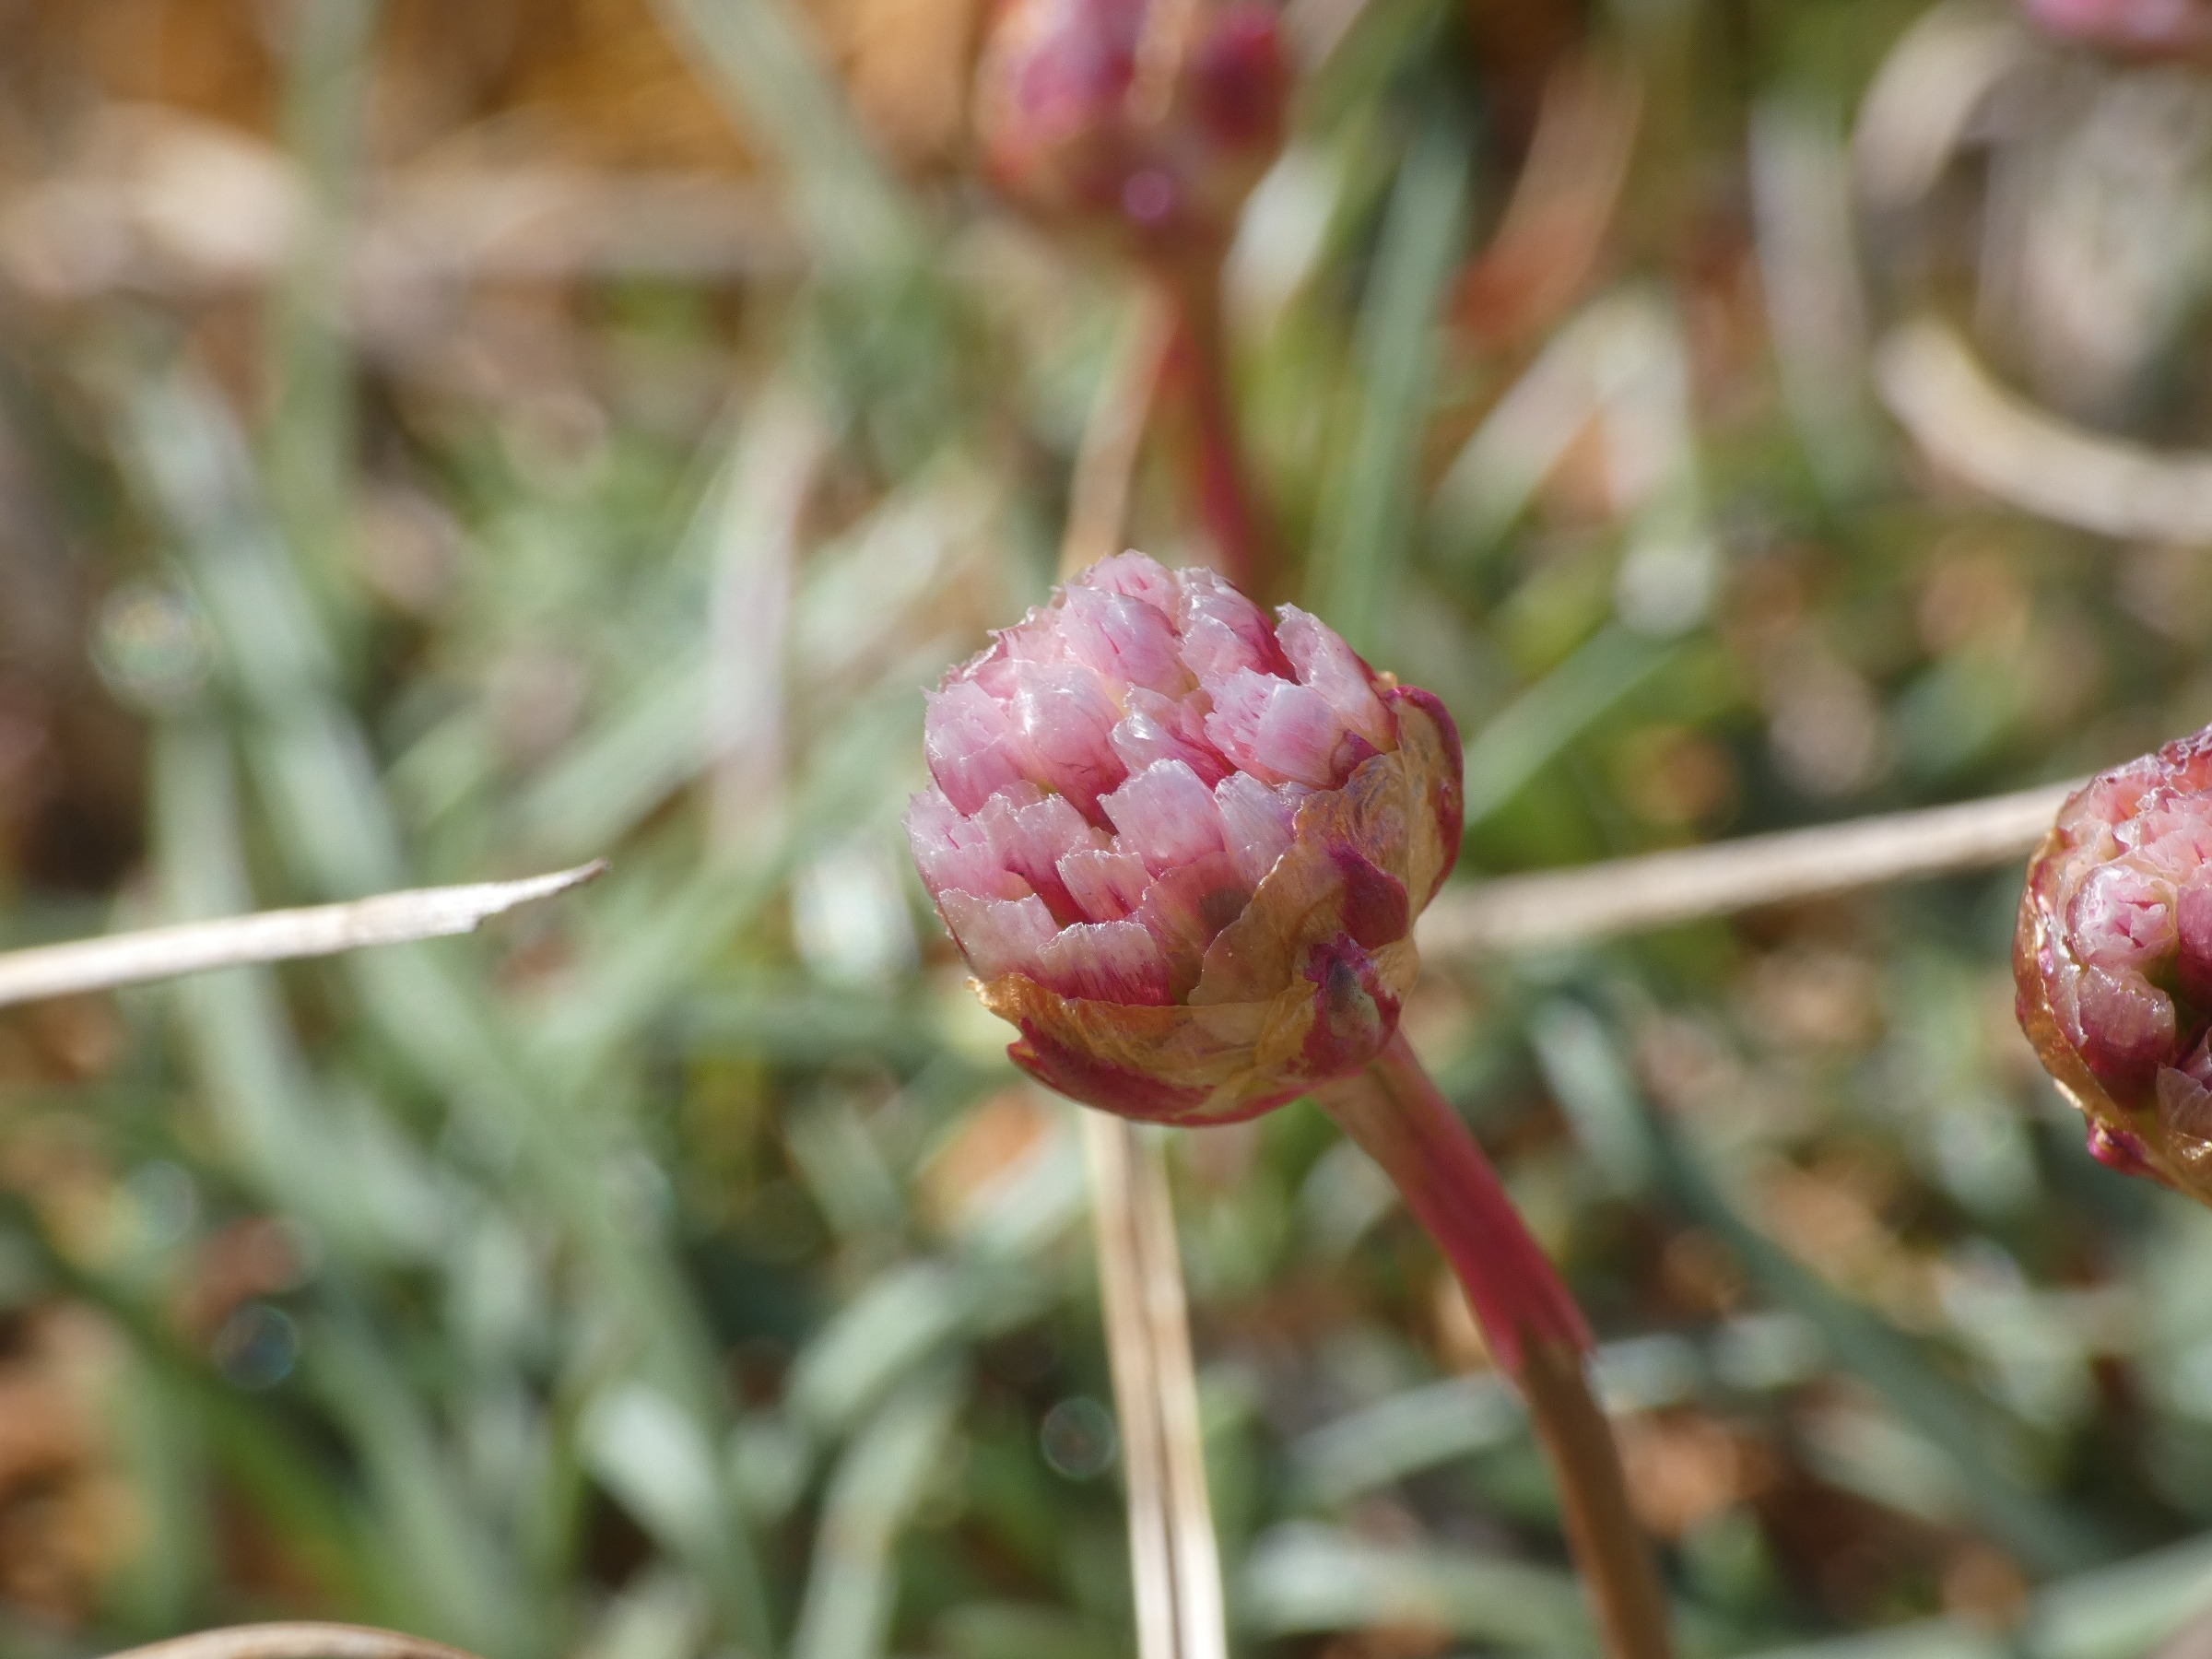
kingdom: Plantae
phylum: Tracheophyta
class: Magnoliopsida
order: Caryophyllales
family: Plumbaginaceae
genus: Armeria
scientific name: Armeria maritima
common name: Engelskgræs
